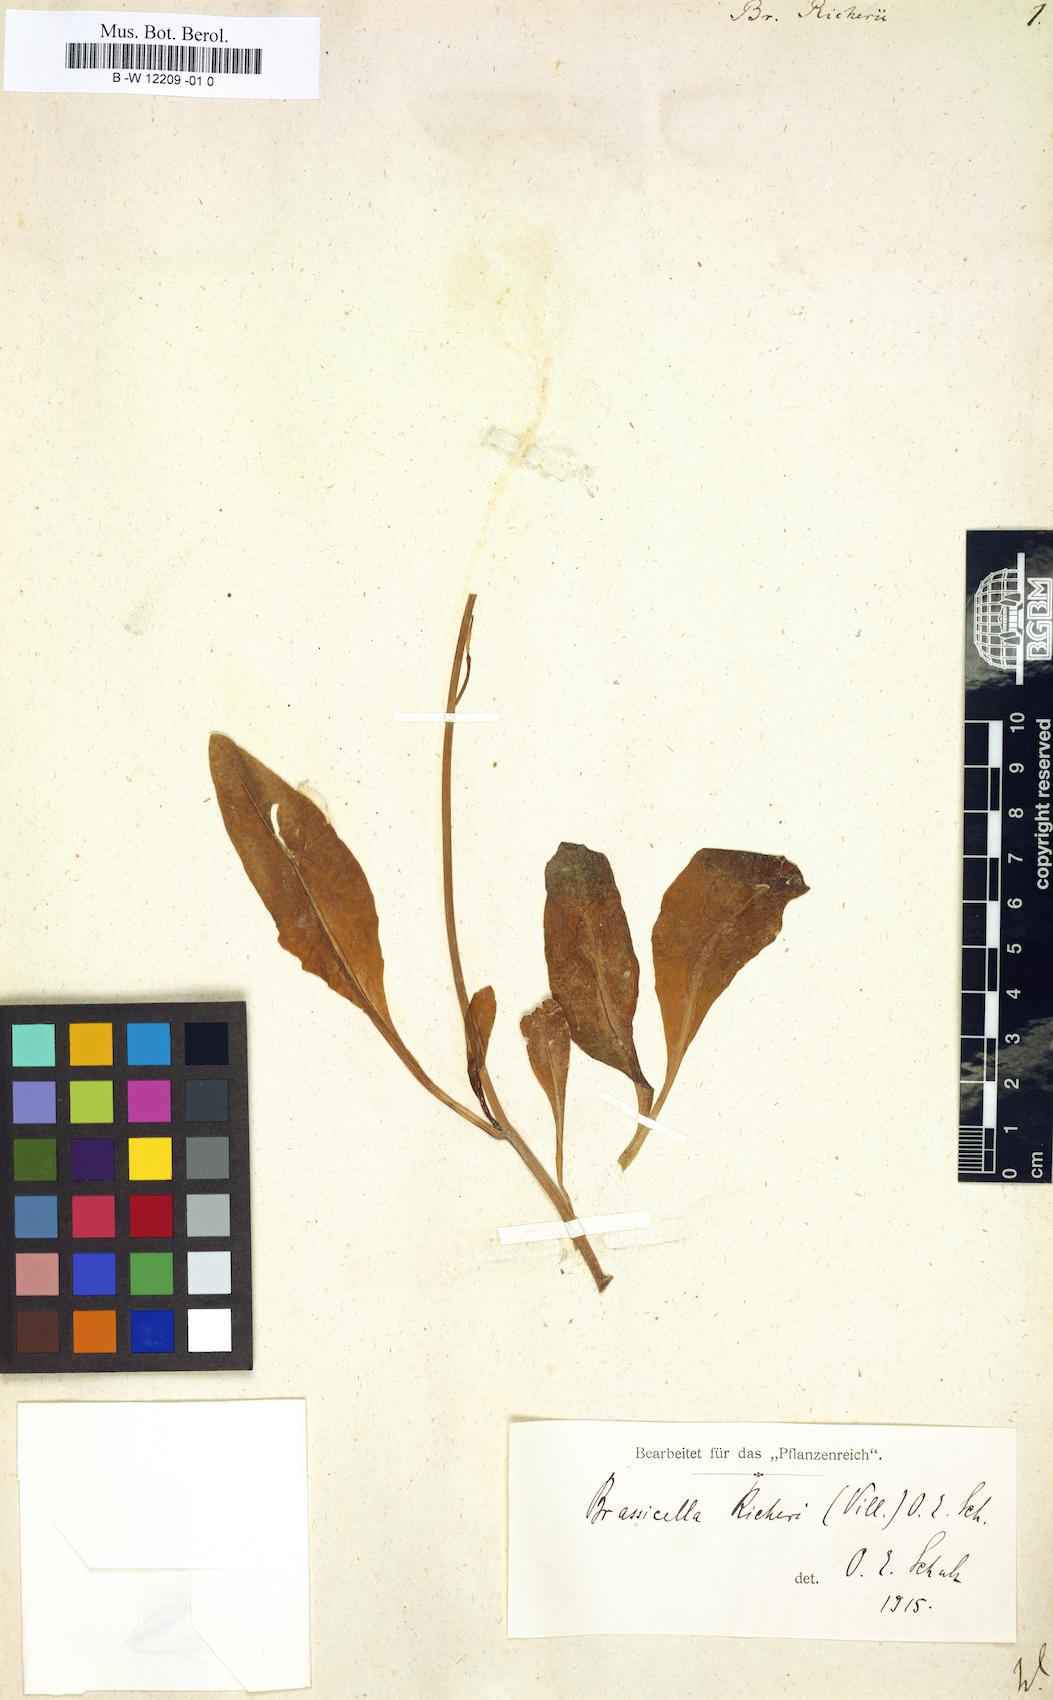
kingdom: Plantae
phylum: Tracheophyta
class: Magnoliopsida
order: Brassicales
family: Brassicaceae
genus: Brassica
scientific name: Brassica richeri
